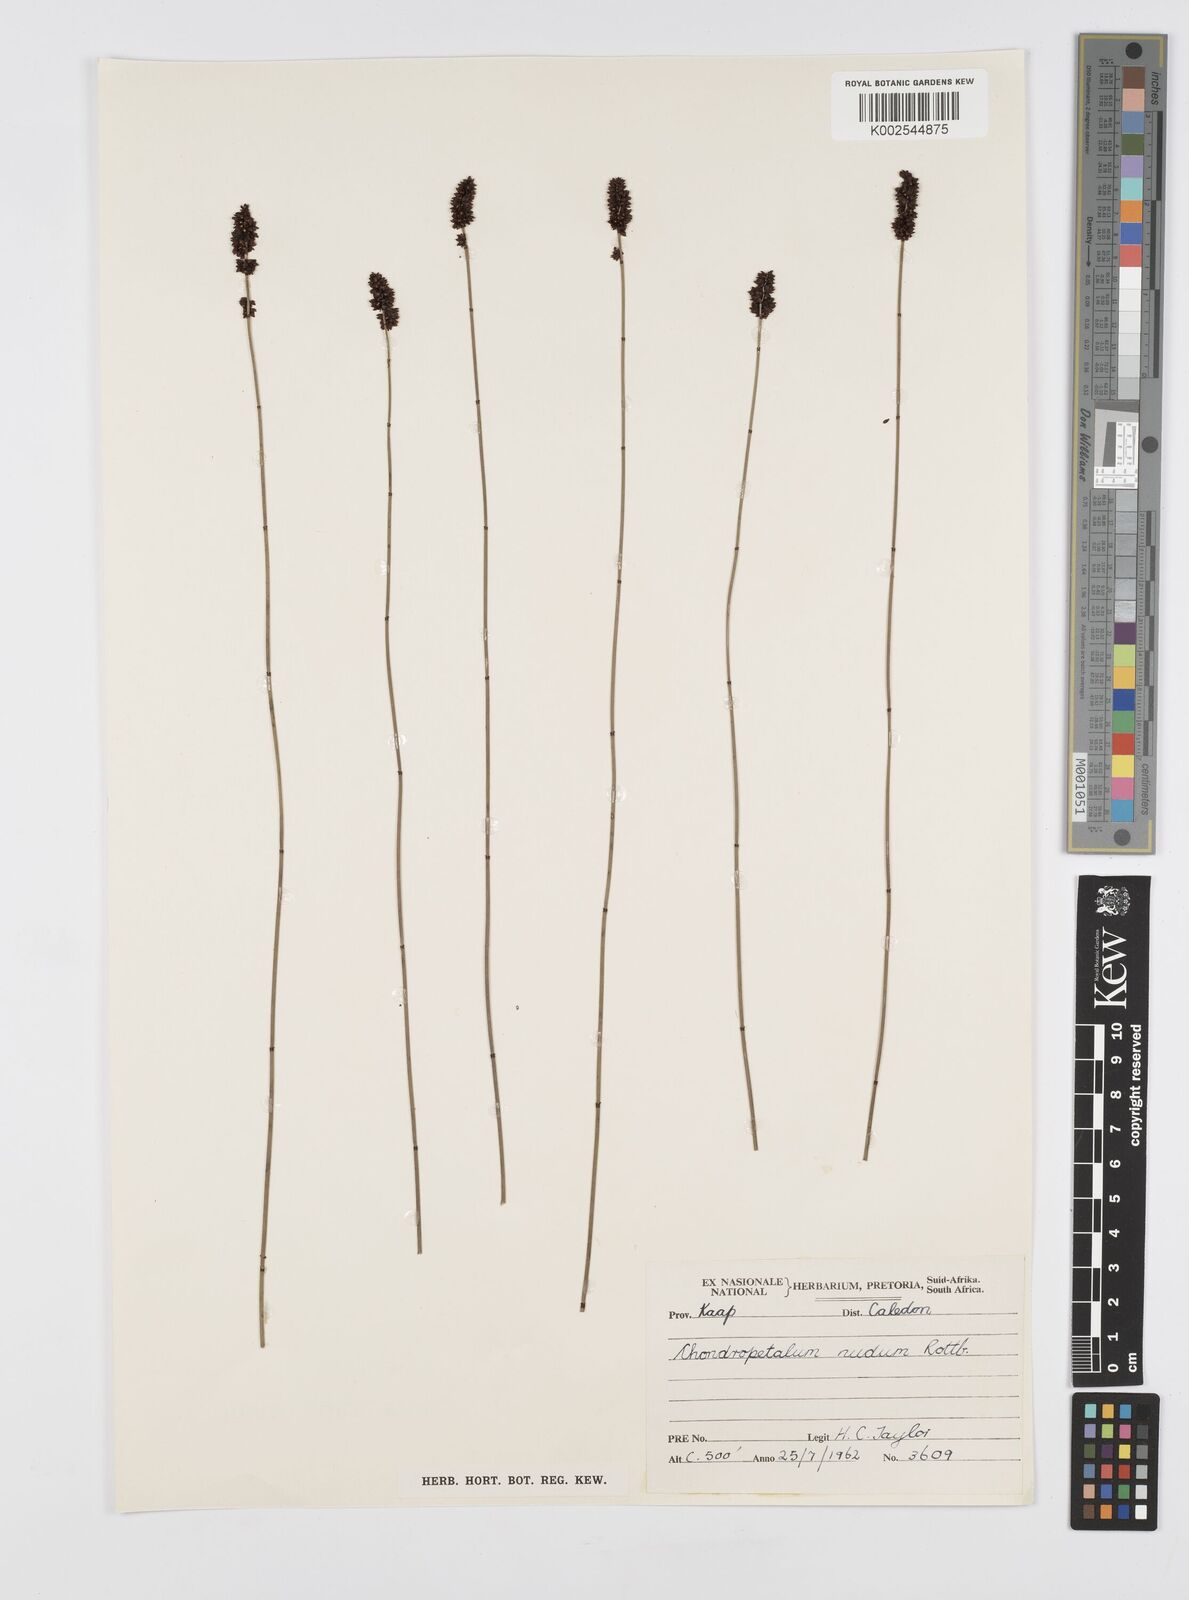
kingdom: Plantae
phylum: Tracheophyta
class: Liliopsida
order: Poales
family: Restionaceae
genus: Elegia
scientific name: Elegia nuda
